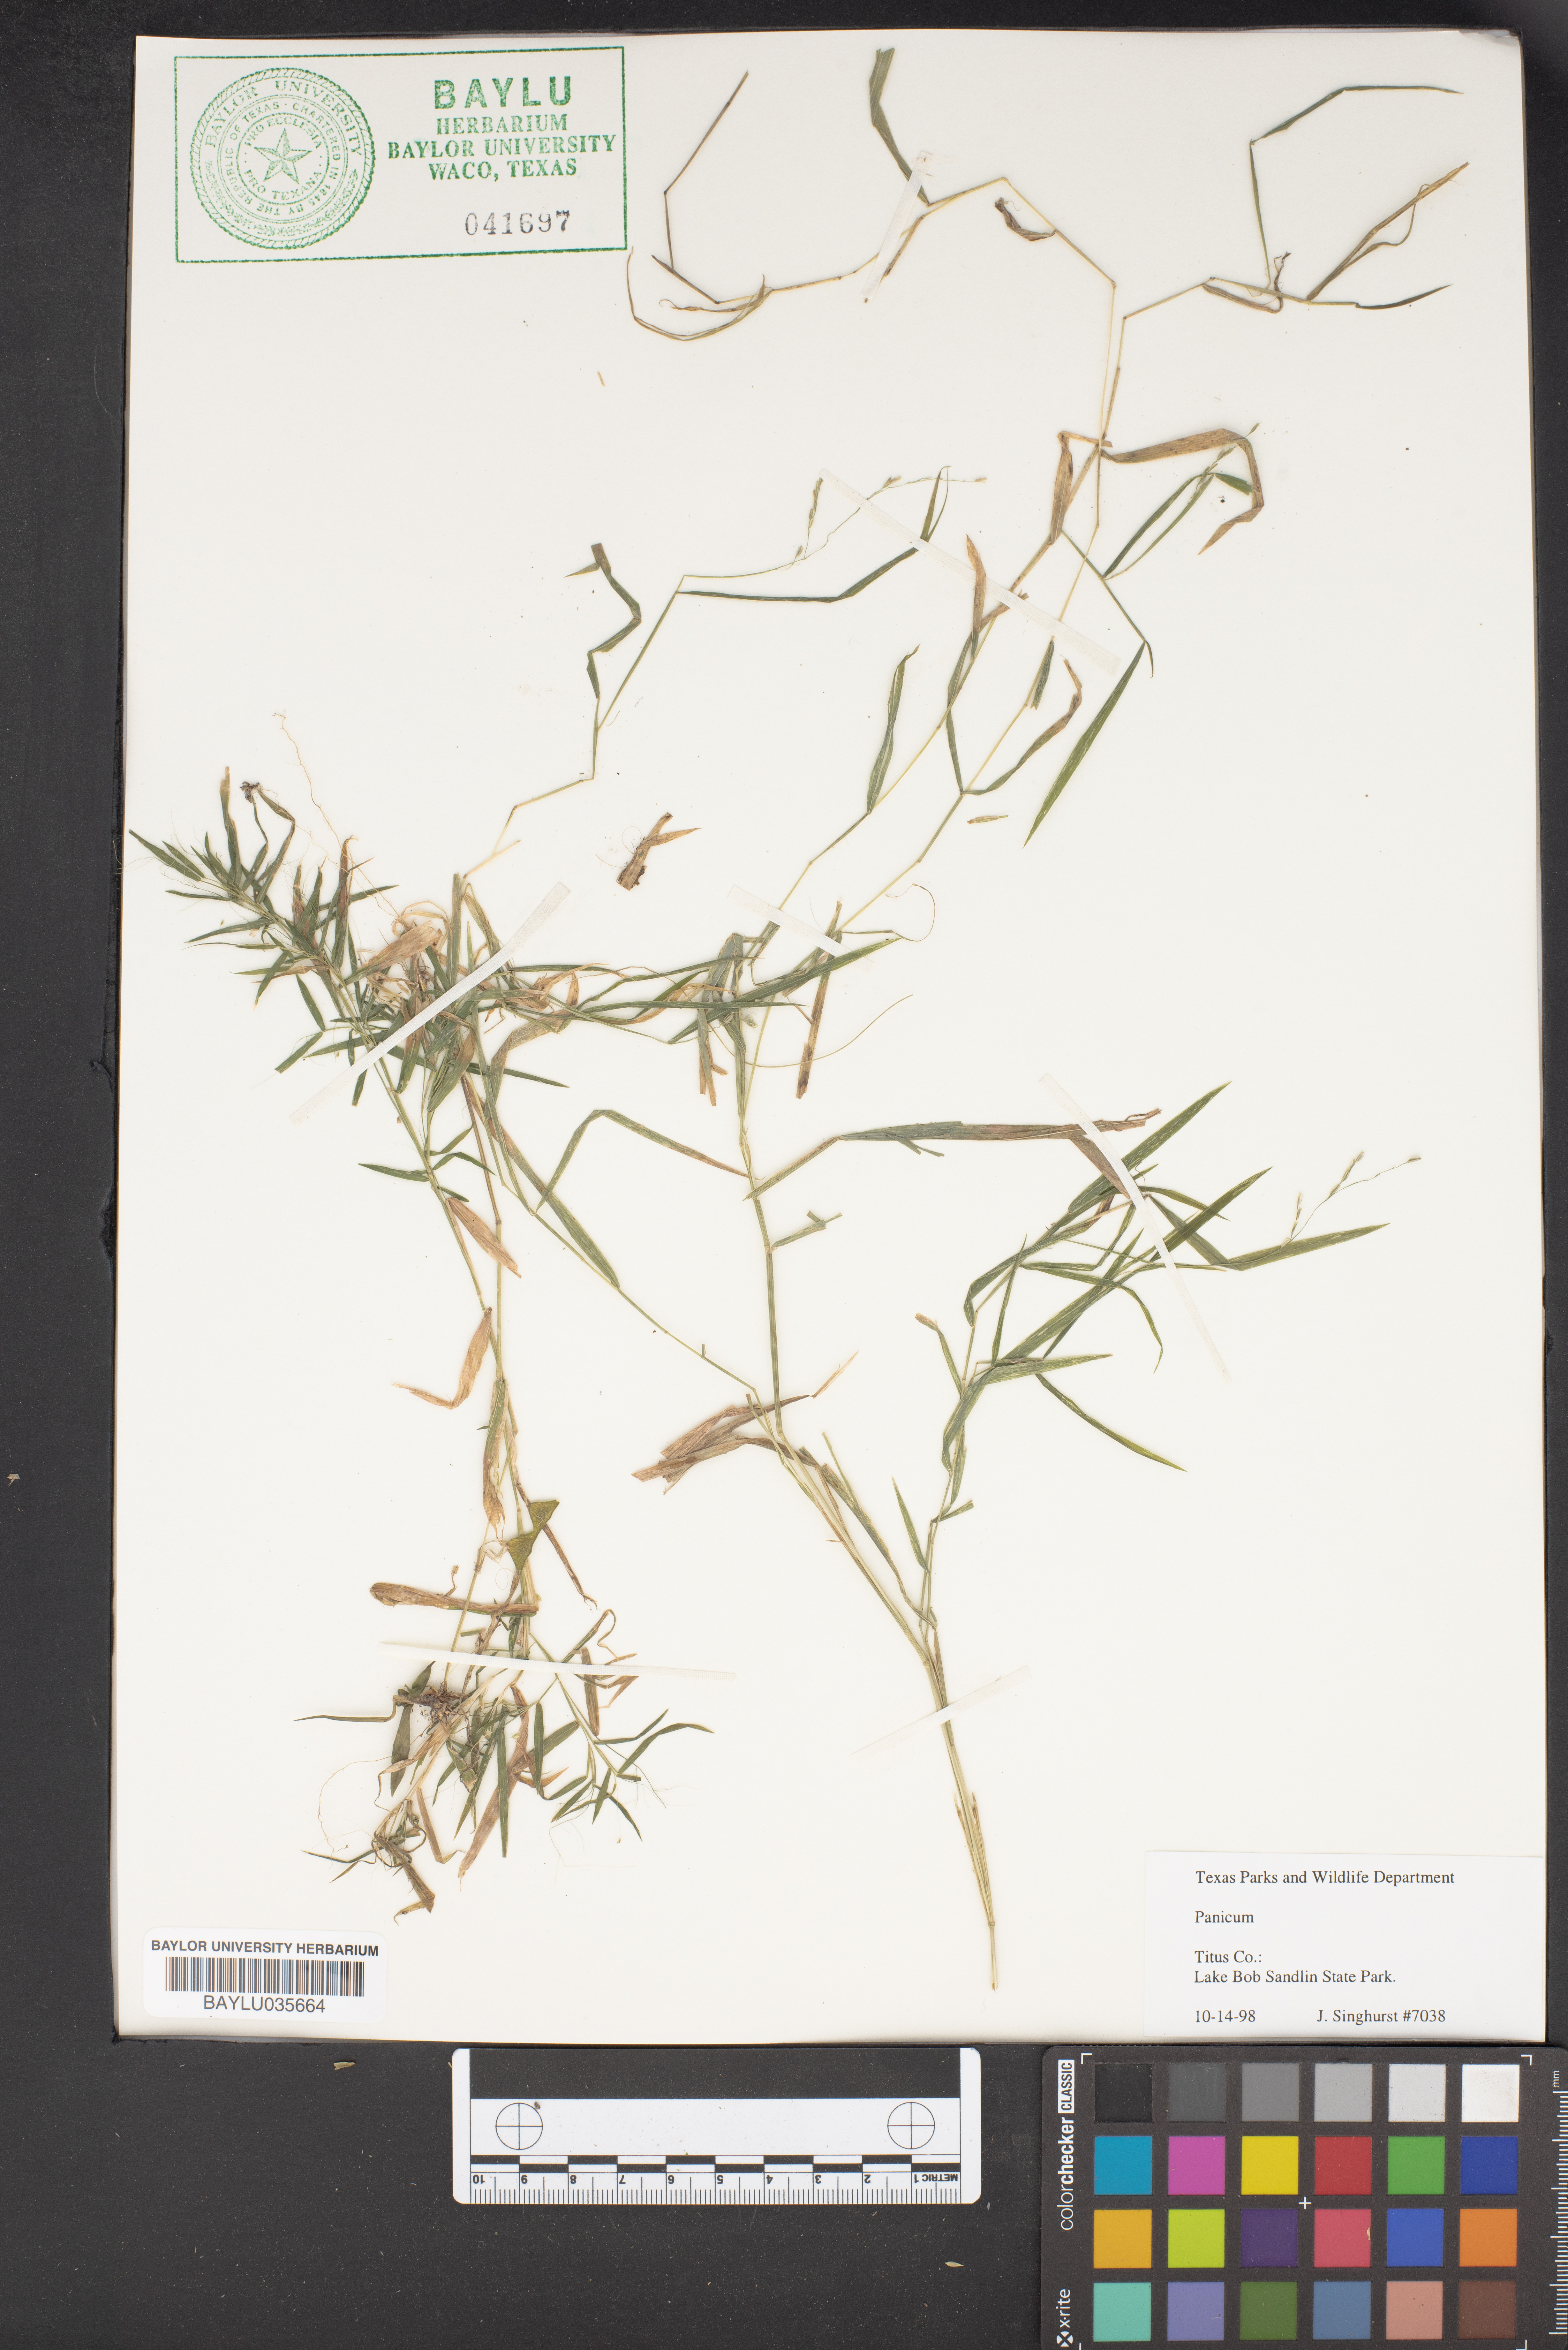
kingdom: Plantae
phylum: Tracheophyta
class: Liliopsida
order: Poales
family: Poaceae
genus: Panicum
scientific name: Panicum
